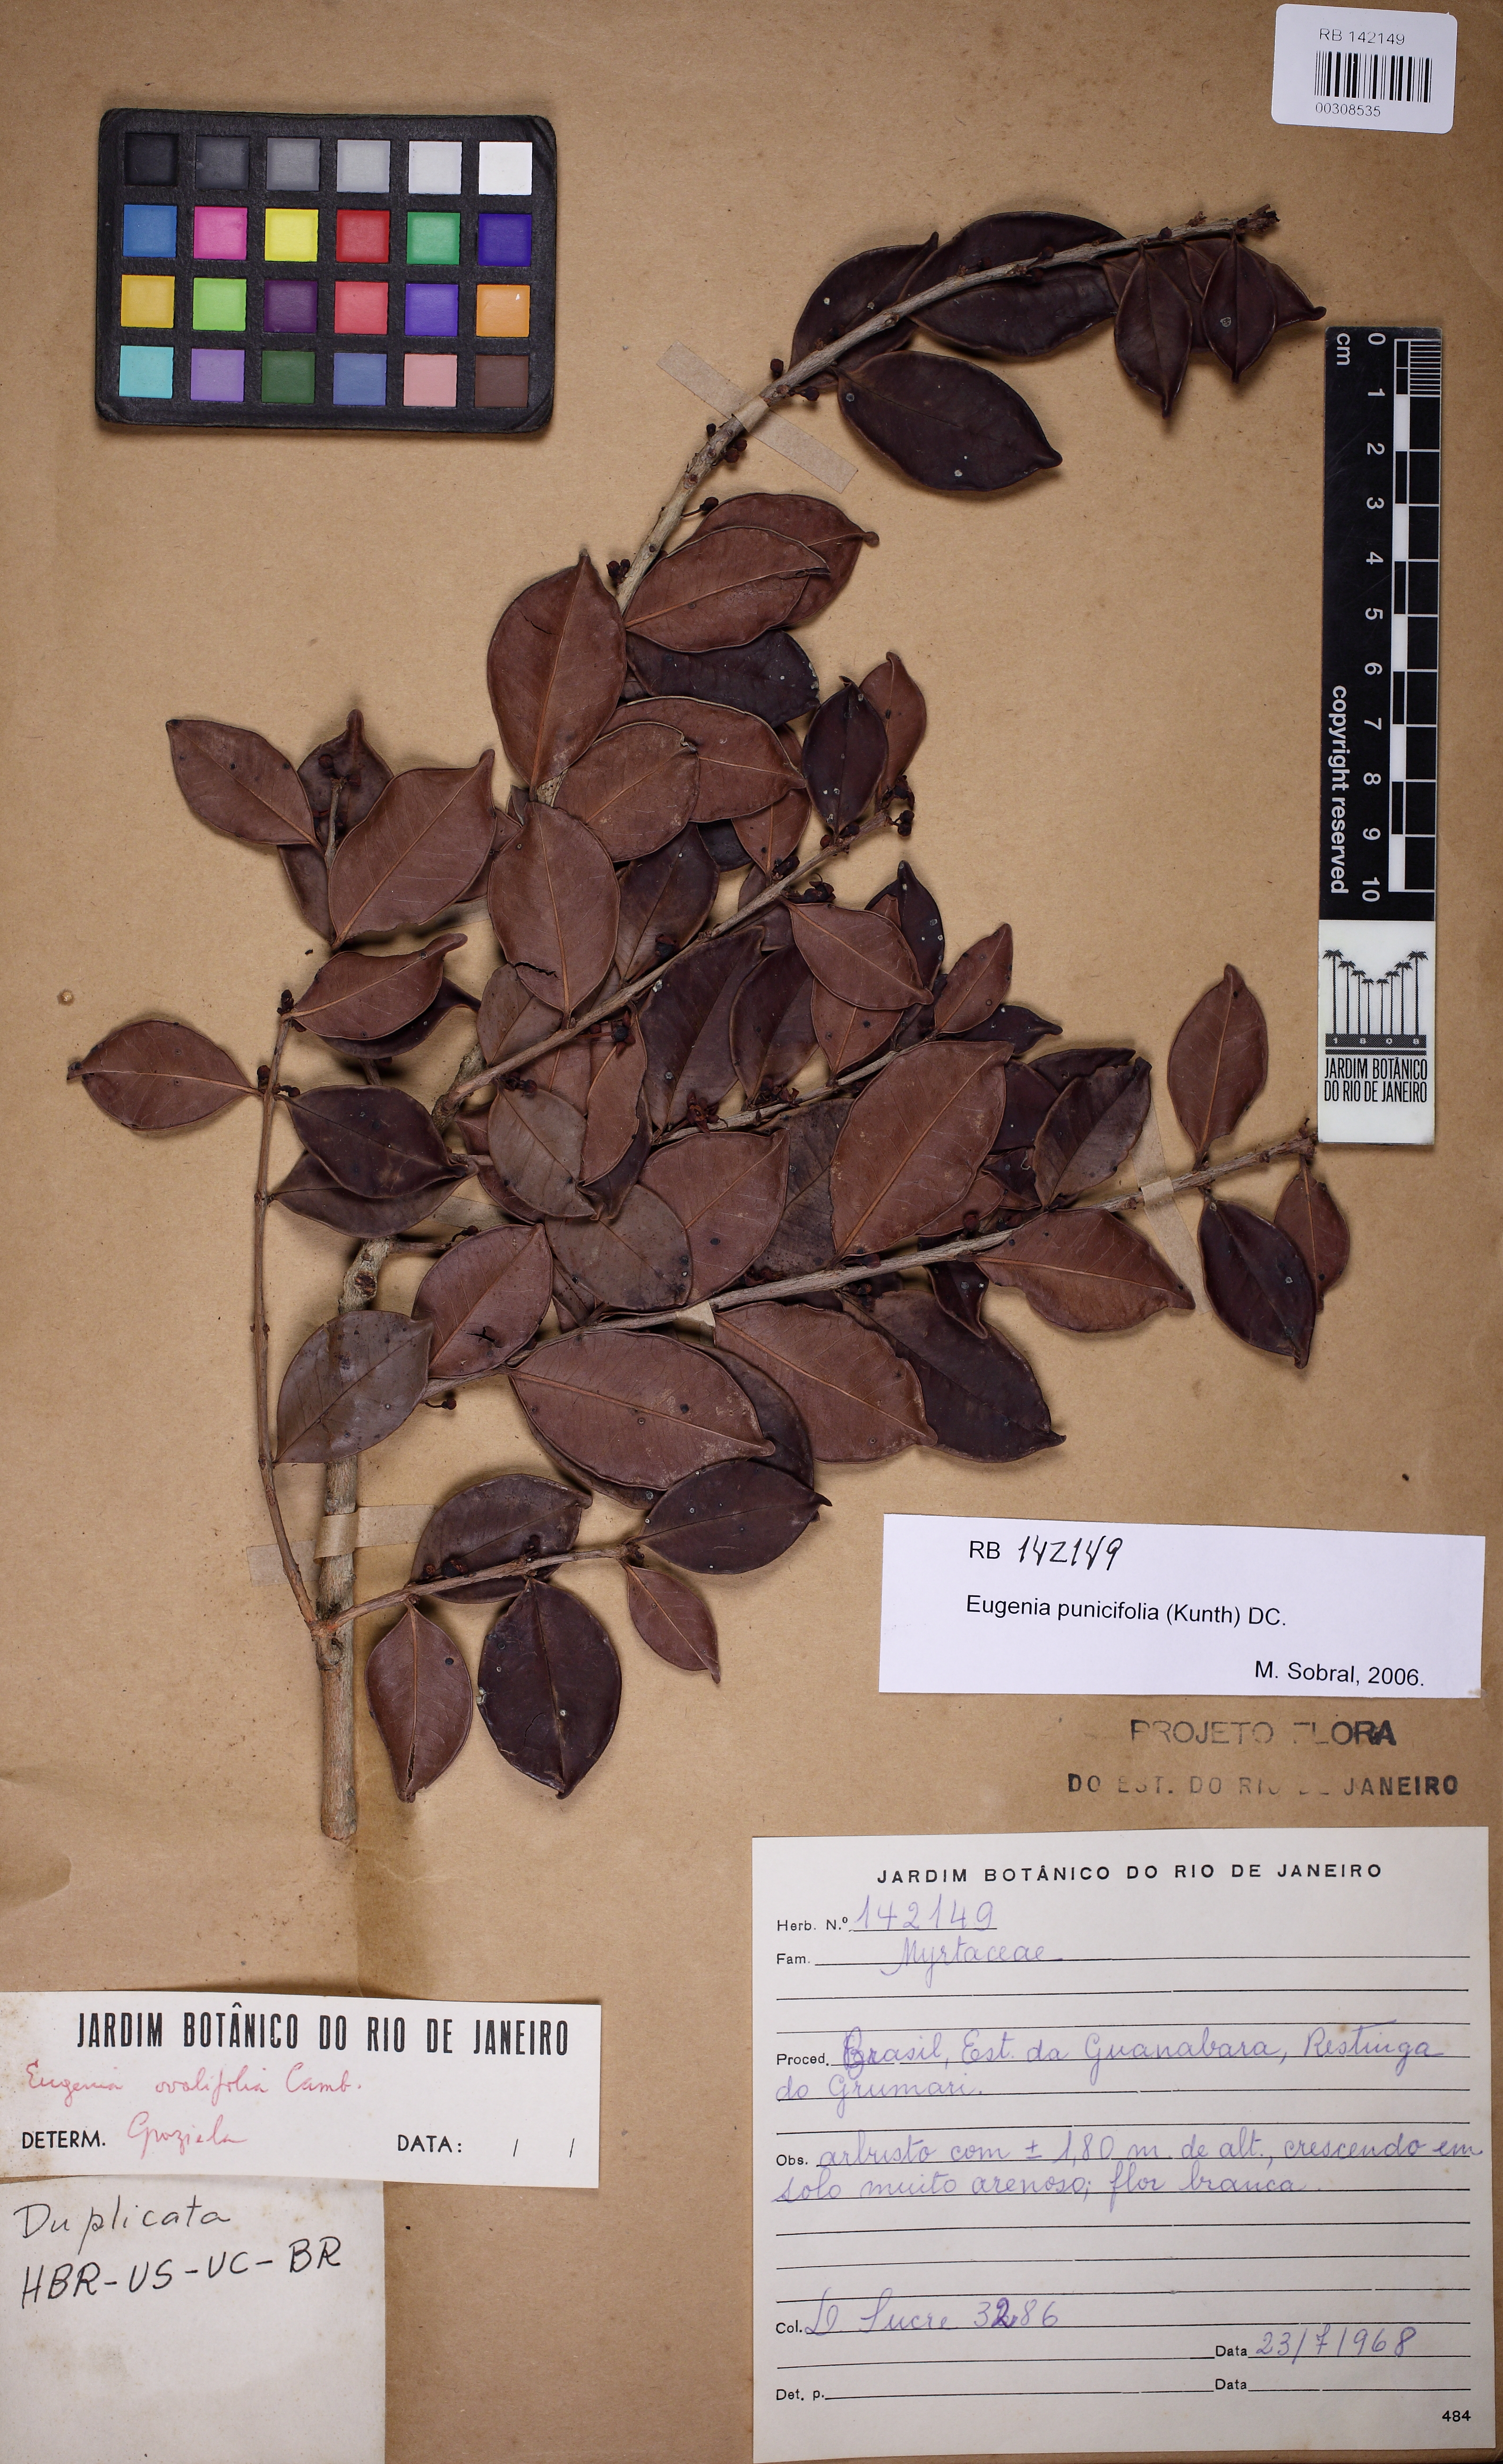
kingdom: Plantae
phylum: Tracheophyta
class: Magnoliopsida
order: Myrtales
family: Myrtaceae
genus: Eugenia
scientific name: Eugenia punicifolia
